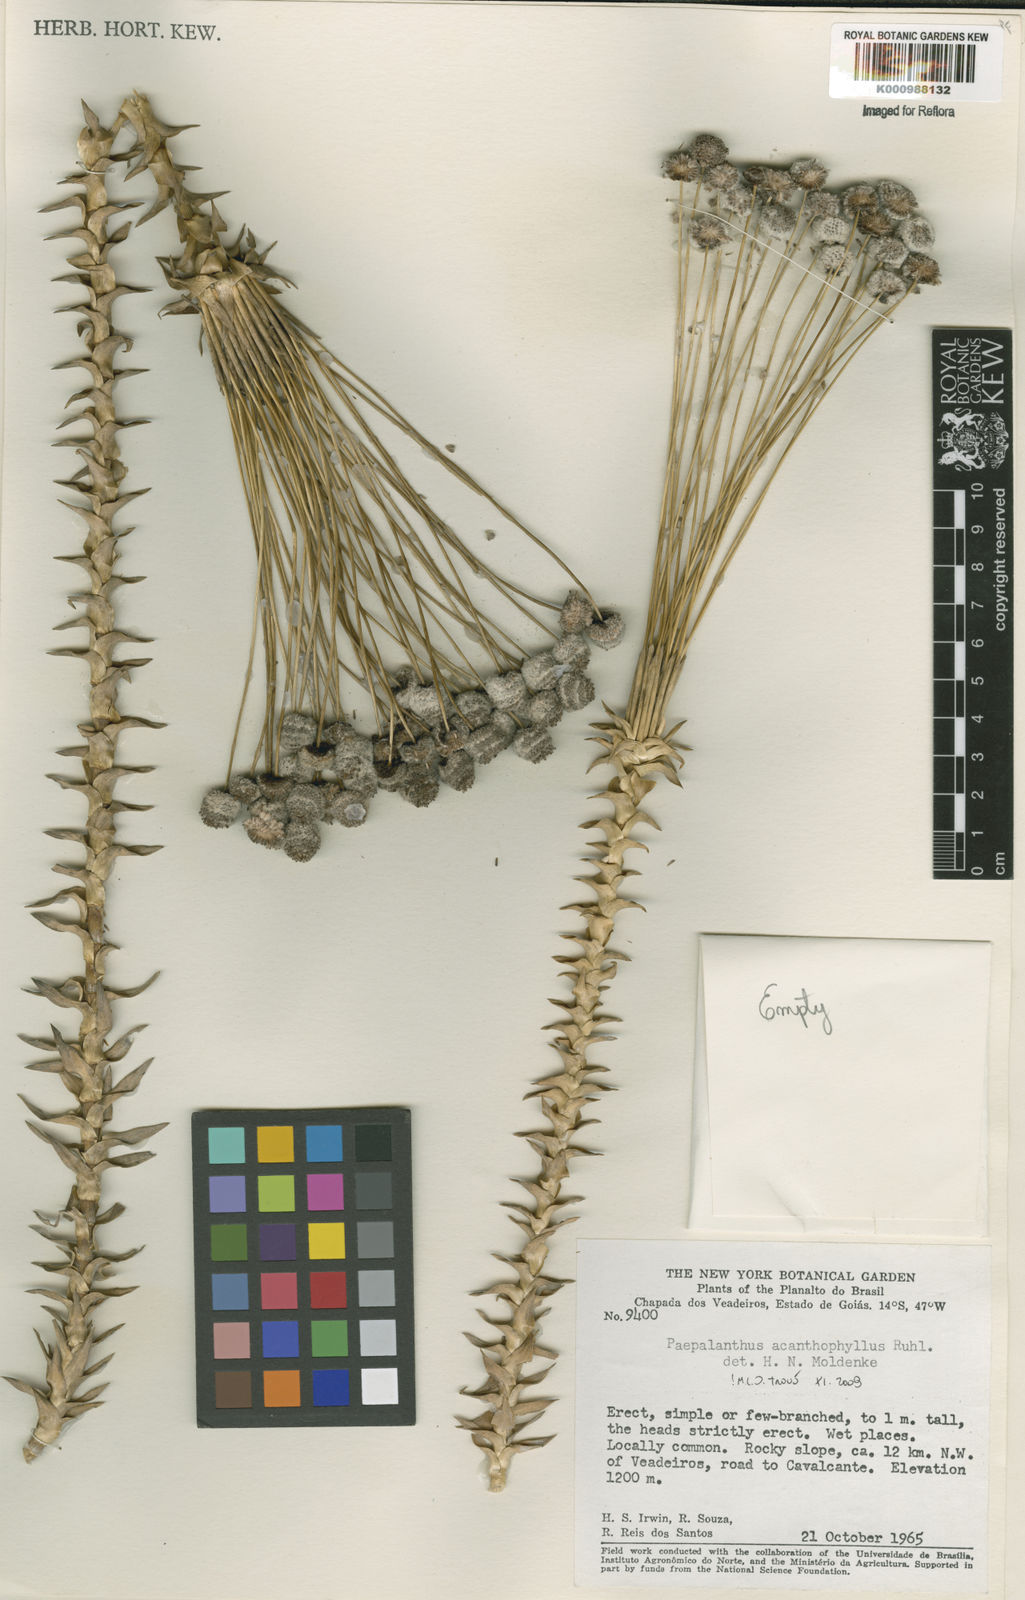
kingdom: Plantae
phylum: Tracheophyta
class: Liliopsida
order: Poales
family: Eriocaulaceae
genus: Paepalanthus
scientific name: Paepalanthus acanthophyllus
